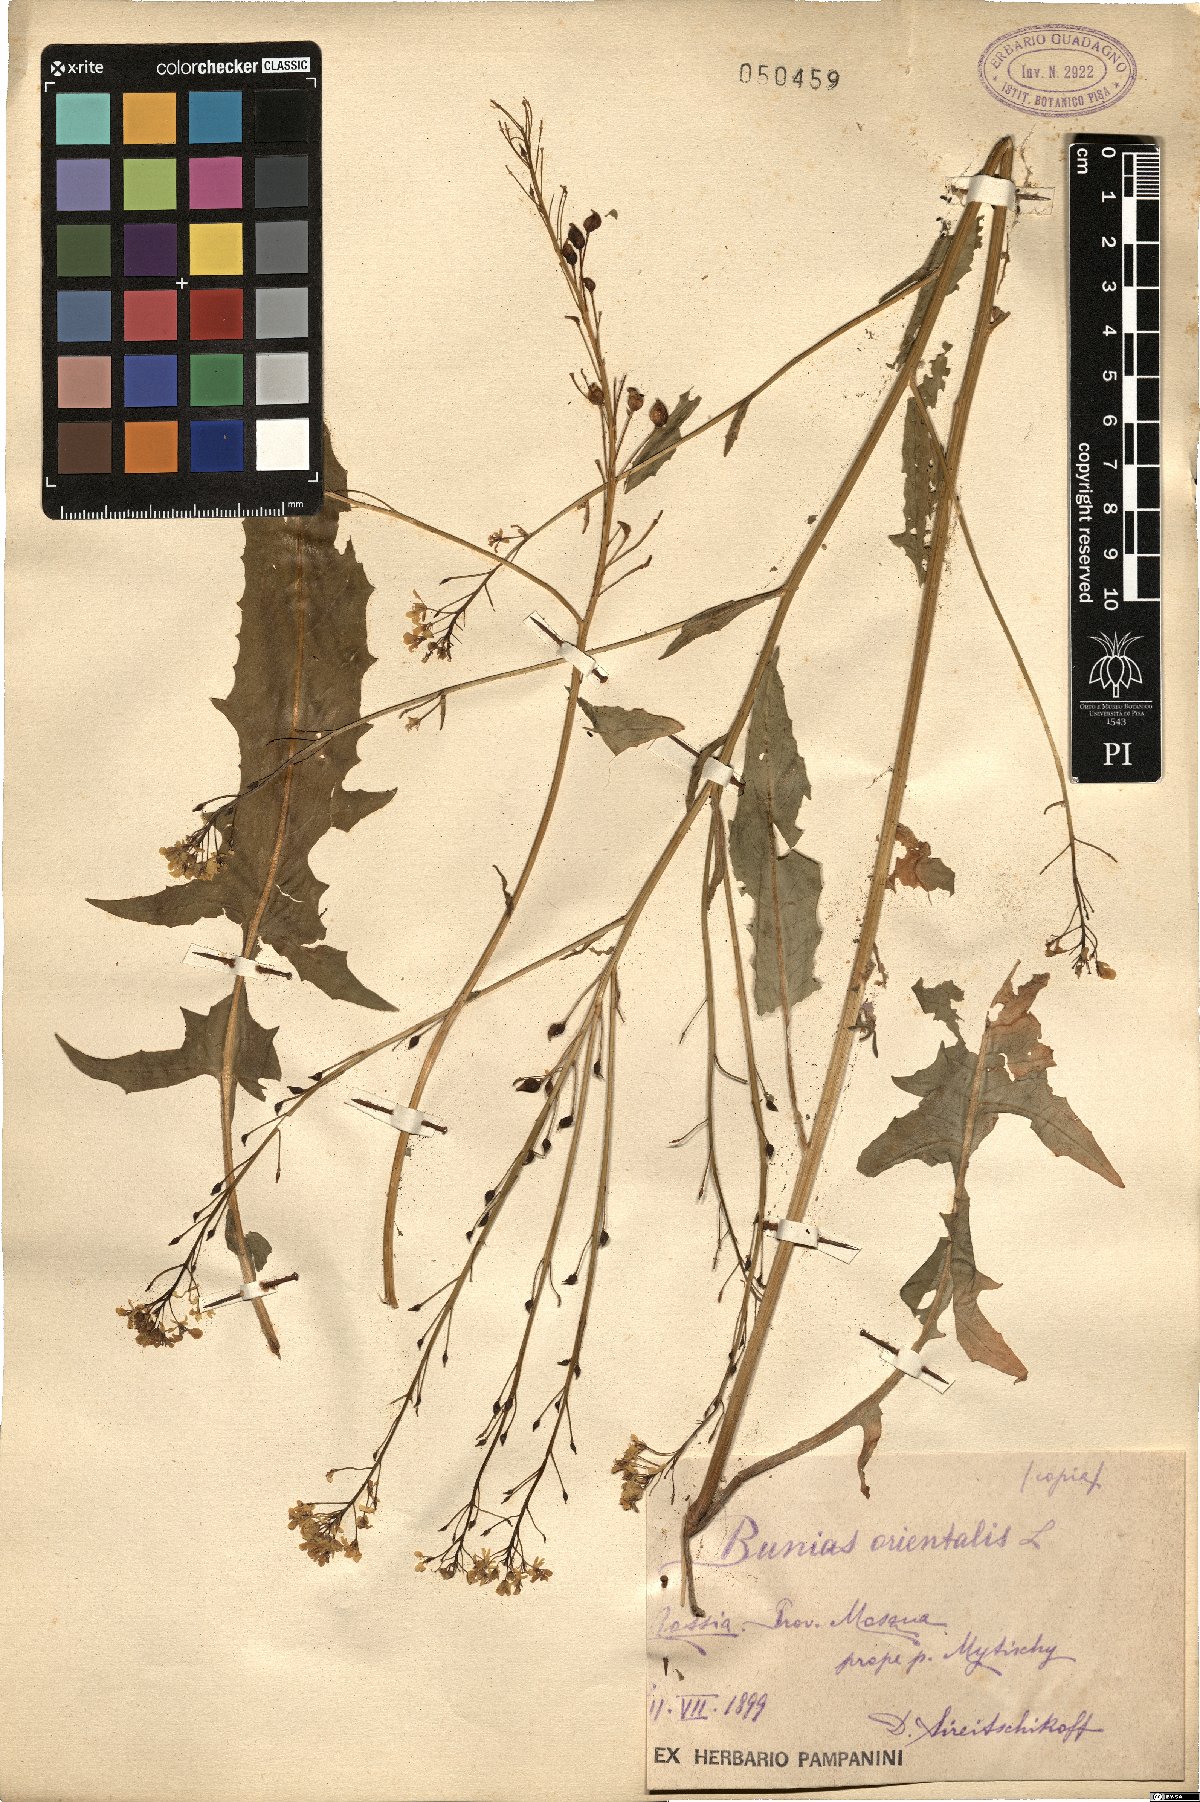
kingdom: Plantae
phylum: Tracheophyta
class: Magnoliopsida
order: Brassicales
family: Brassicaceae
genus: Bunias
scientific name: Bunias orientalis
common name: Warty-cabbage
